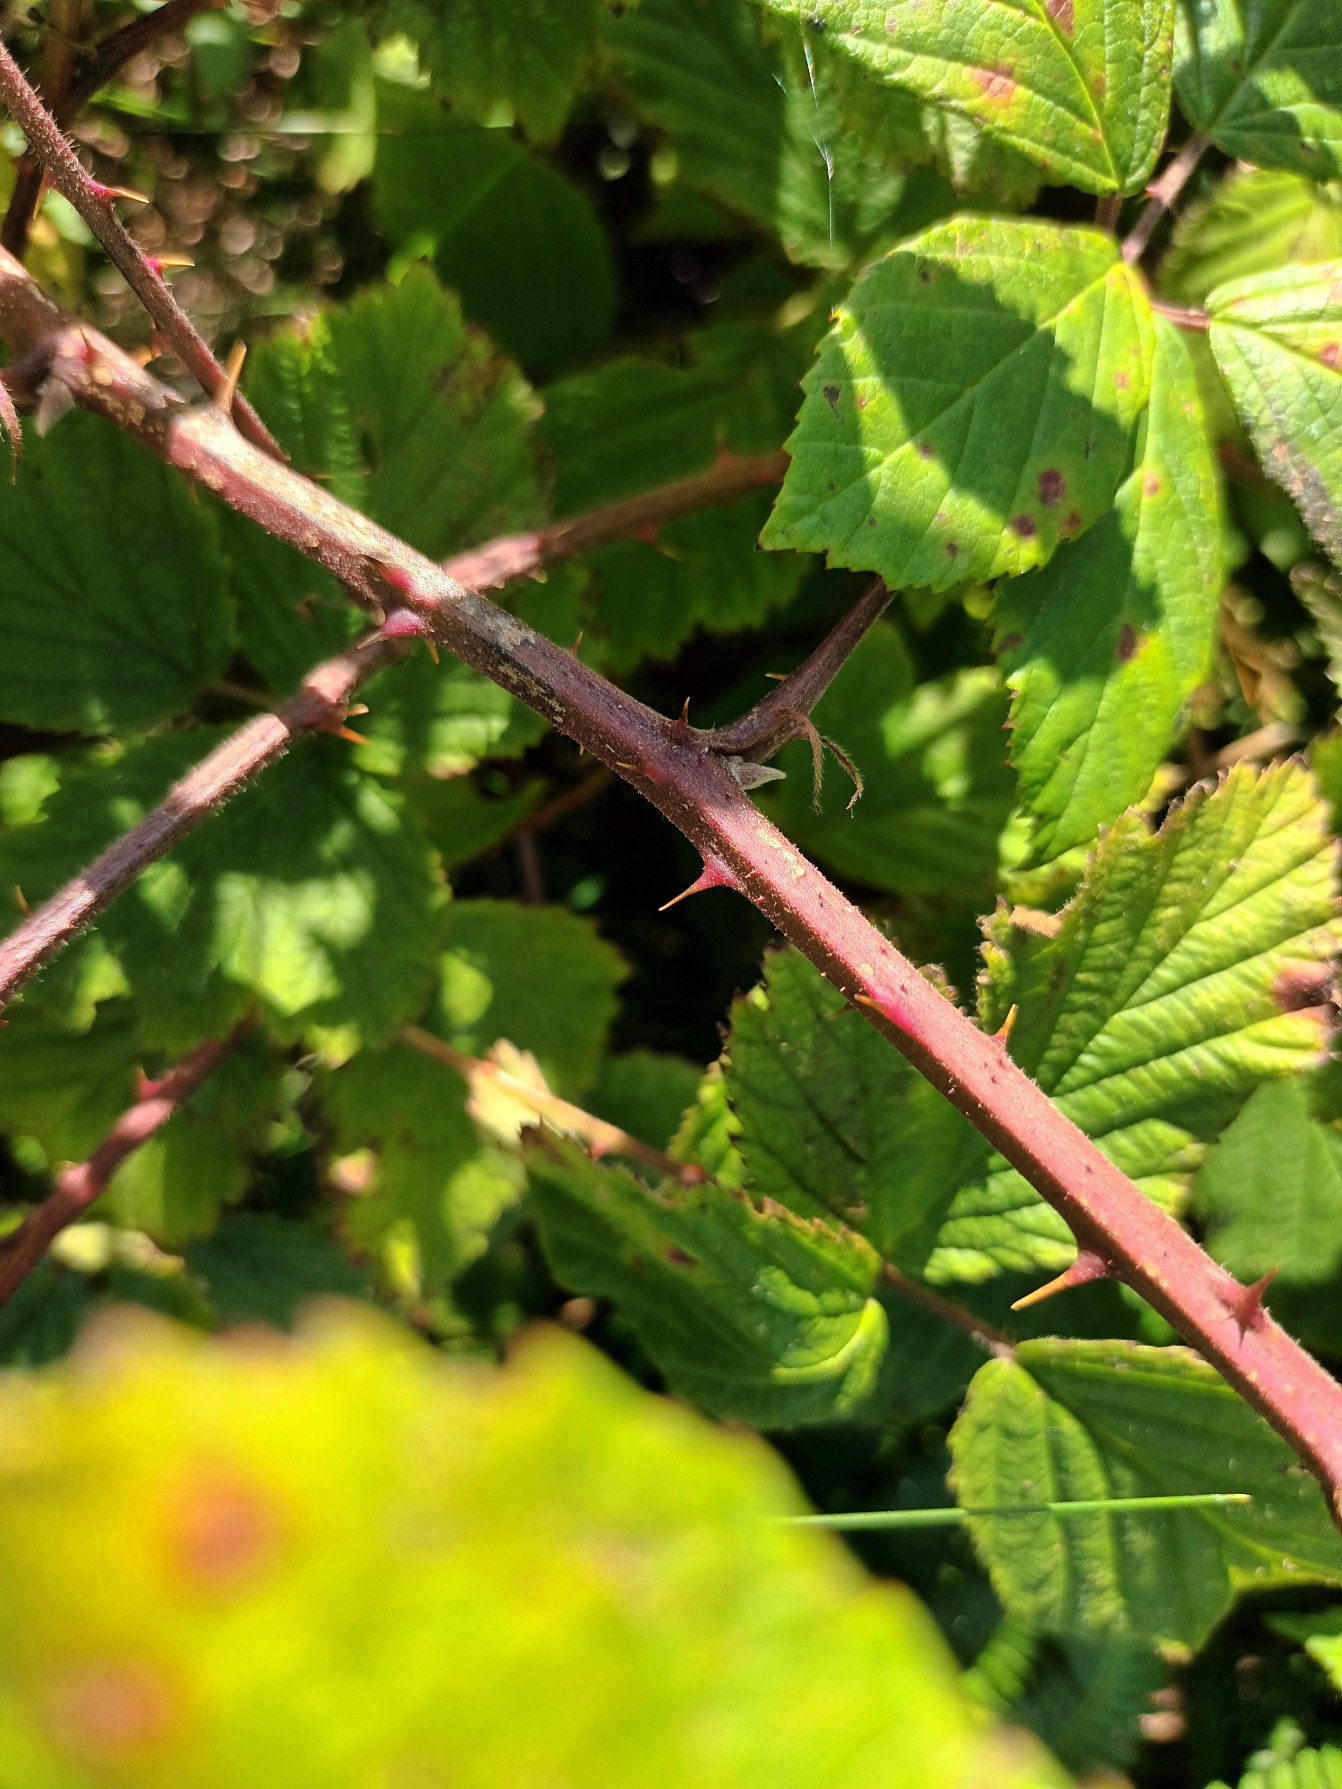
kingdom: Plantae
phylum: Tracheophyta
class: Magnoliopsida
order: Rosales
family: Rosaceae
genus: Rubus
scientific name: Rubus radula
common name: Rasperu brombær
